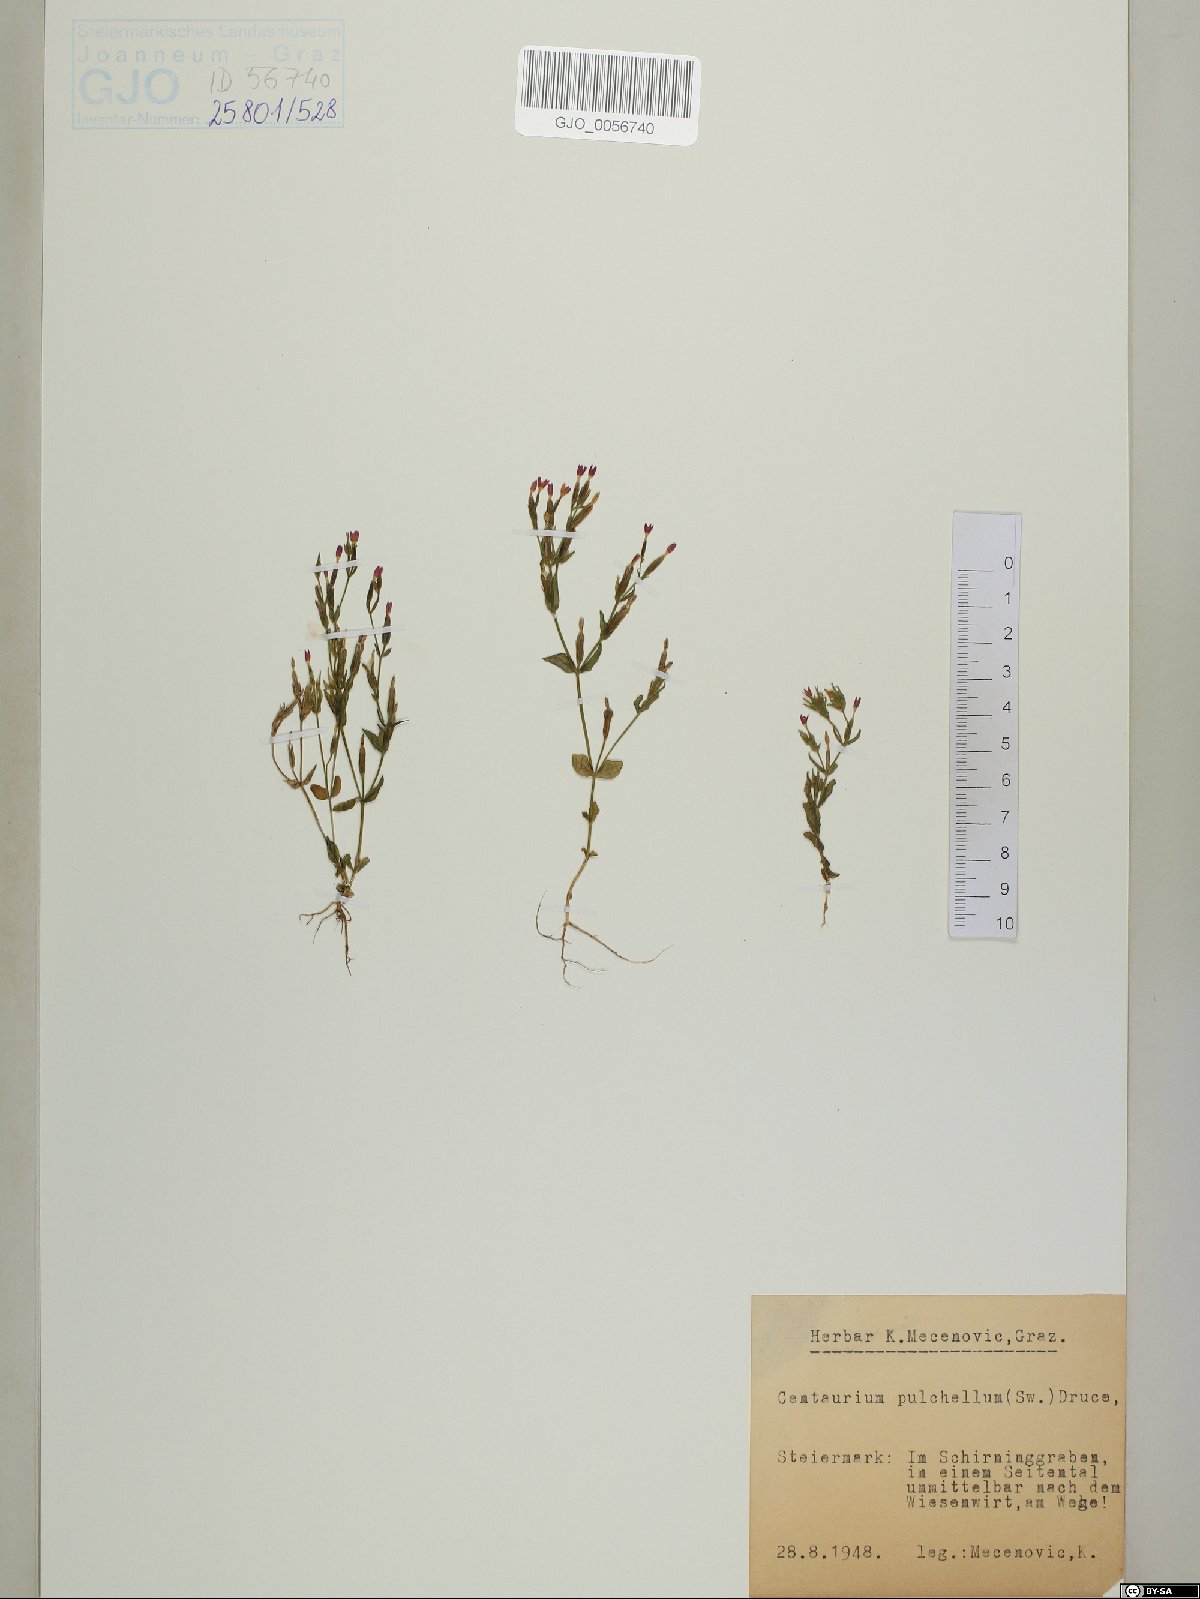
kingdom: Plantae
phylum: Tracheophyta
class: Magnoliopsida
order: Gentianales
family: Gentianaceae
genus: Centaurium
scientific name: Centaurium pulchellum
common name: Lesser centaury
